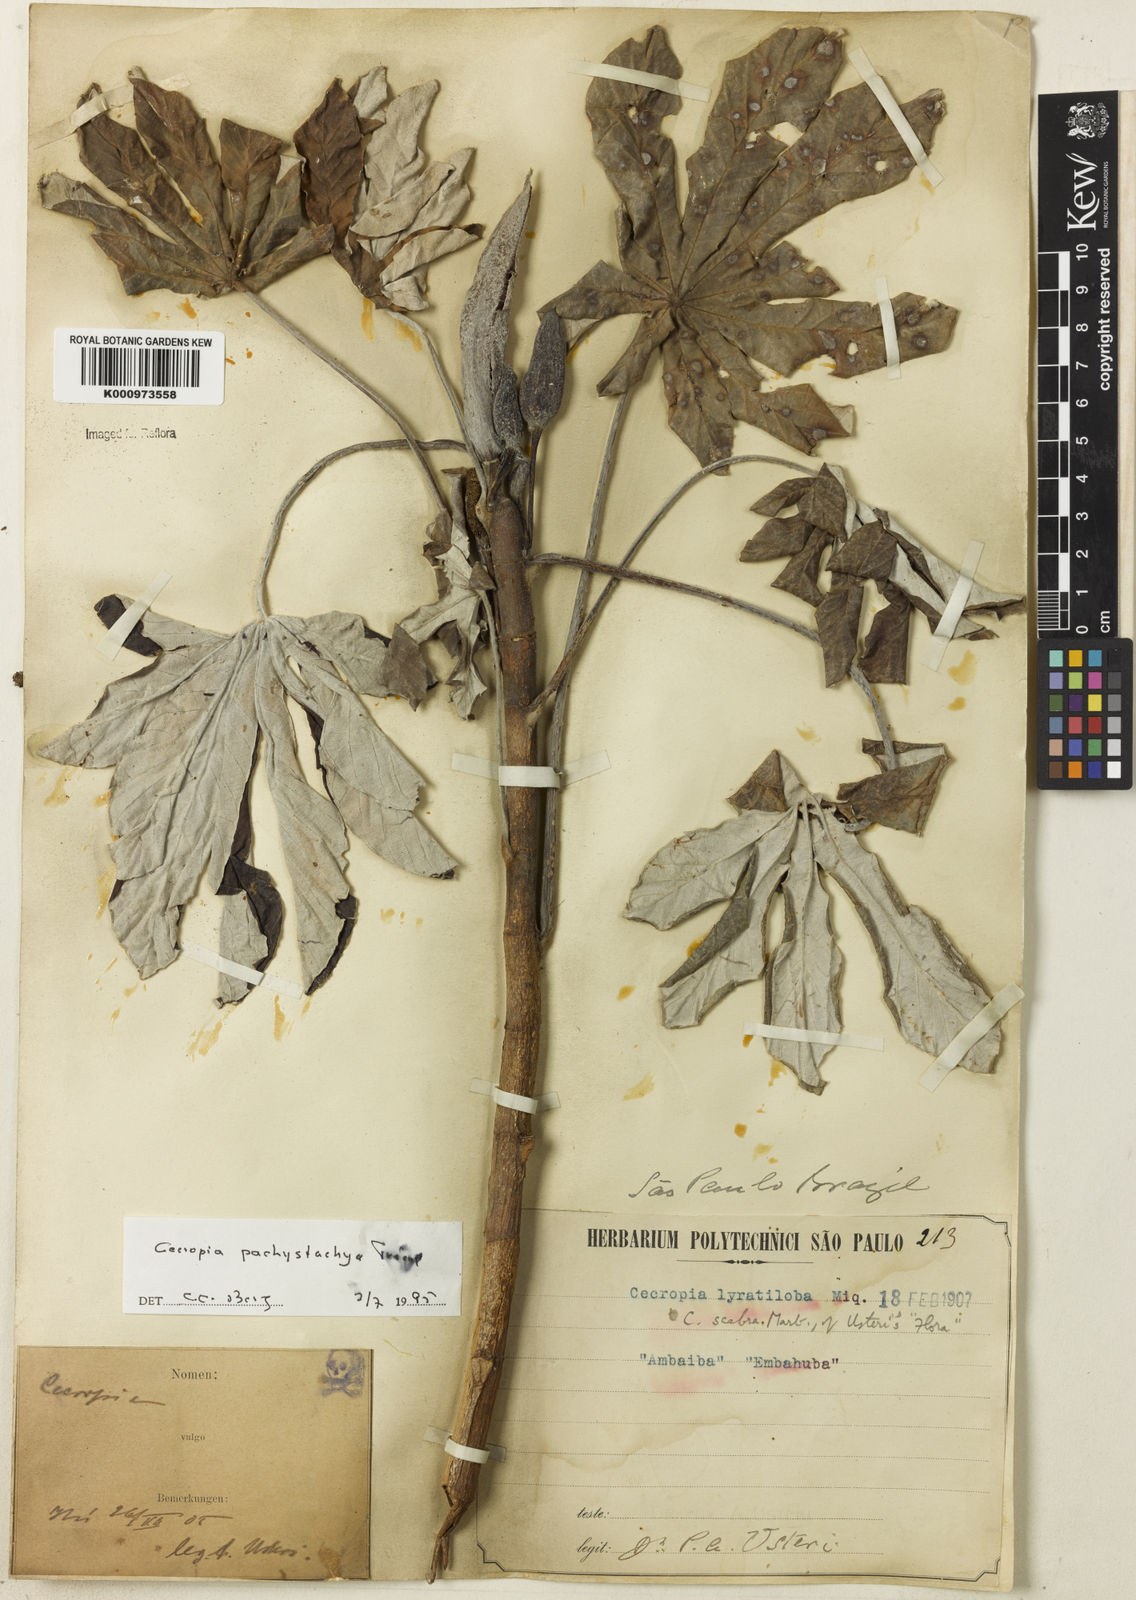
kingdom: Plantae
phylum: Tracheophyta
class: Magnoliopsida
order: Rosales
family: Urticaceae
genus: Cecropia
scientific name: Cecropia
